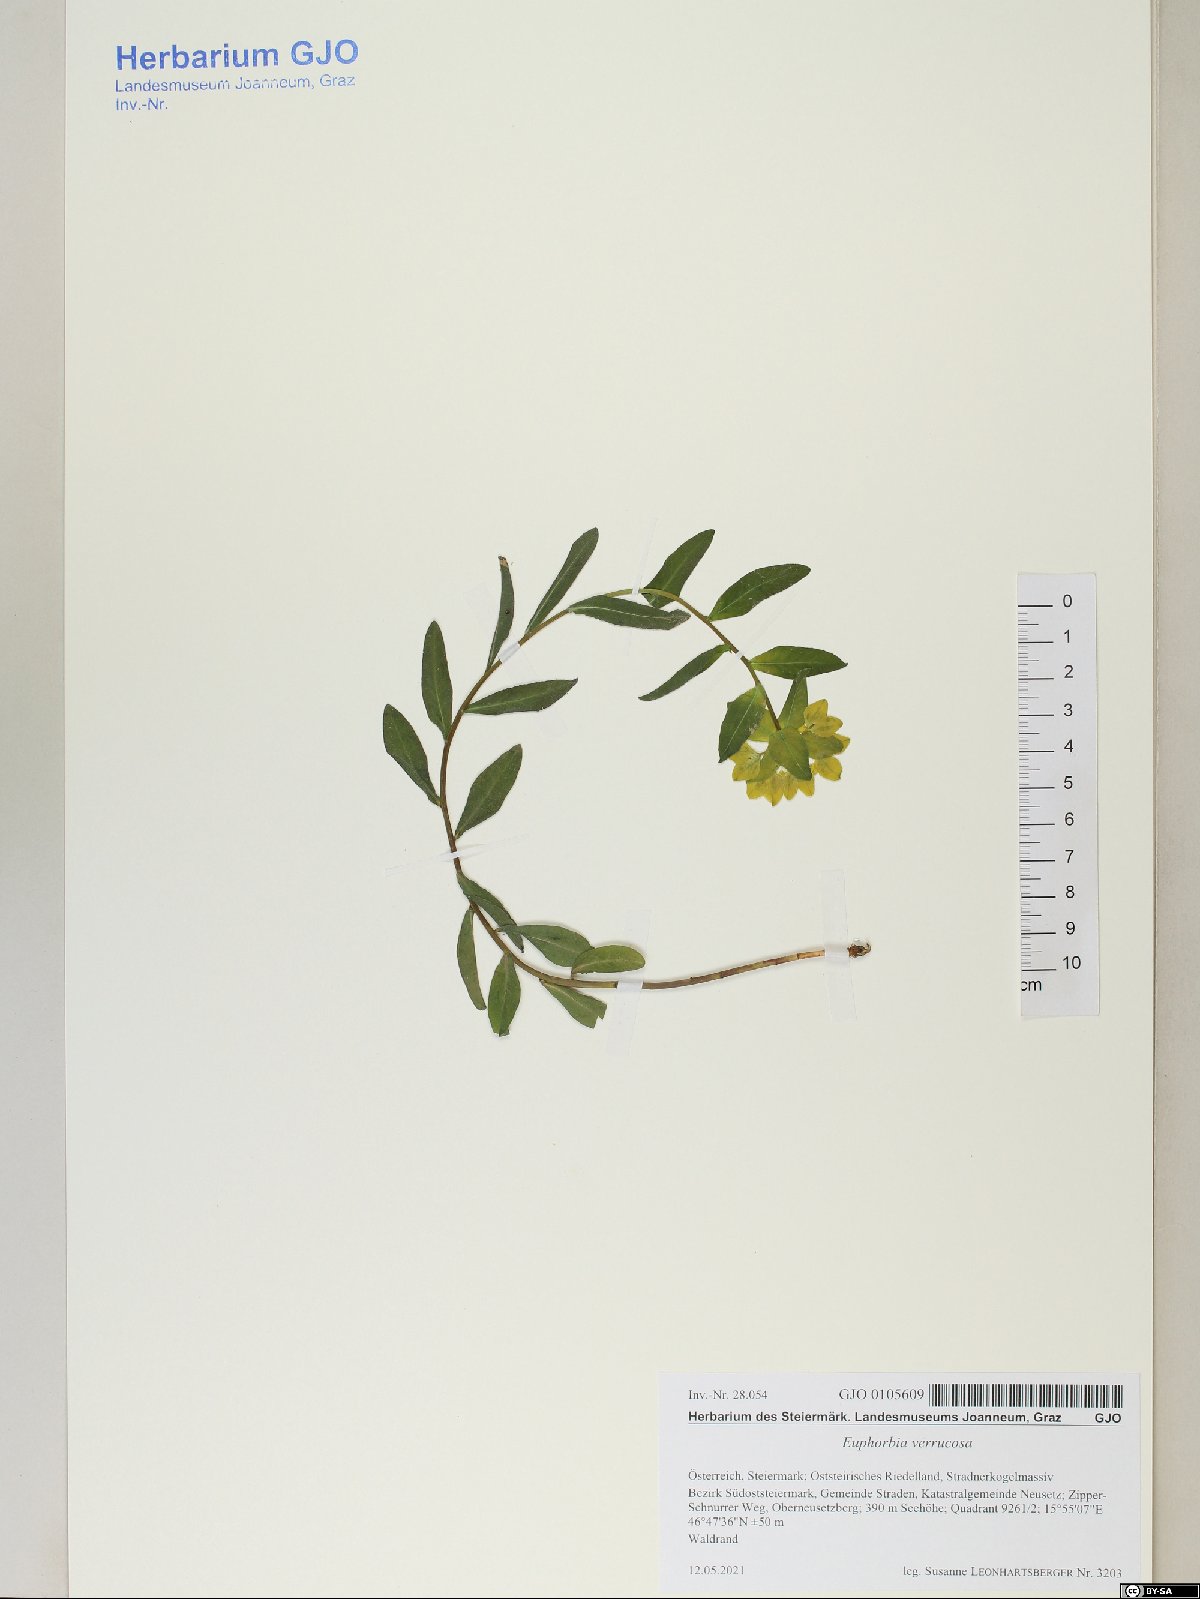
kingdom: Plantae
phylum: Tracheophyta
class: Magnoliopsida
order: Malpighiales
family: Euphorbiaceae
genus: Euphorbia
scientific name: Euphorbia verrucosa
